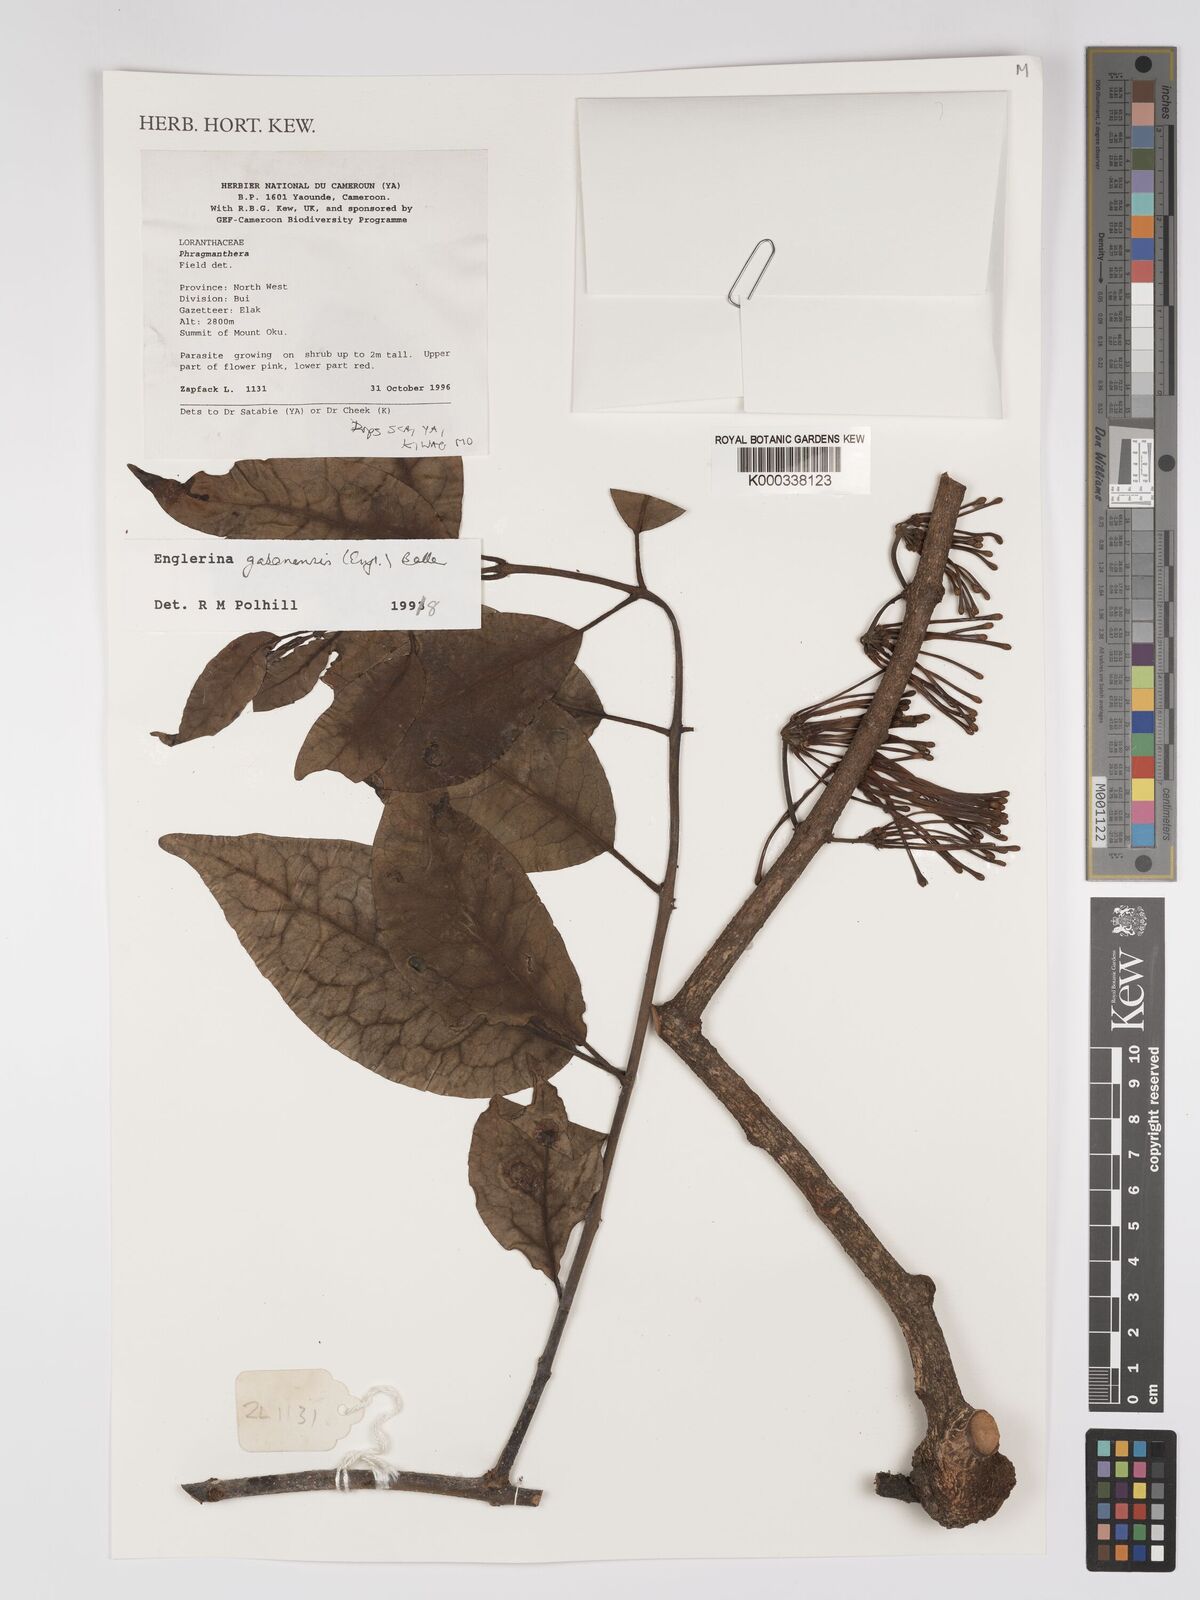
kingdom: Plantae
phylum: Tracheophyta
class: Magnoliopsida
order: Santalales
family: Loranthaceae
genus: Englerina
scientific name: Englerina gabonensis
